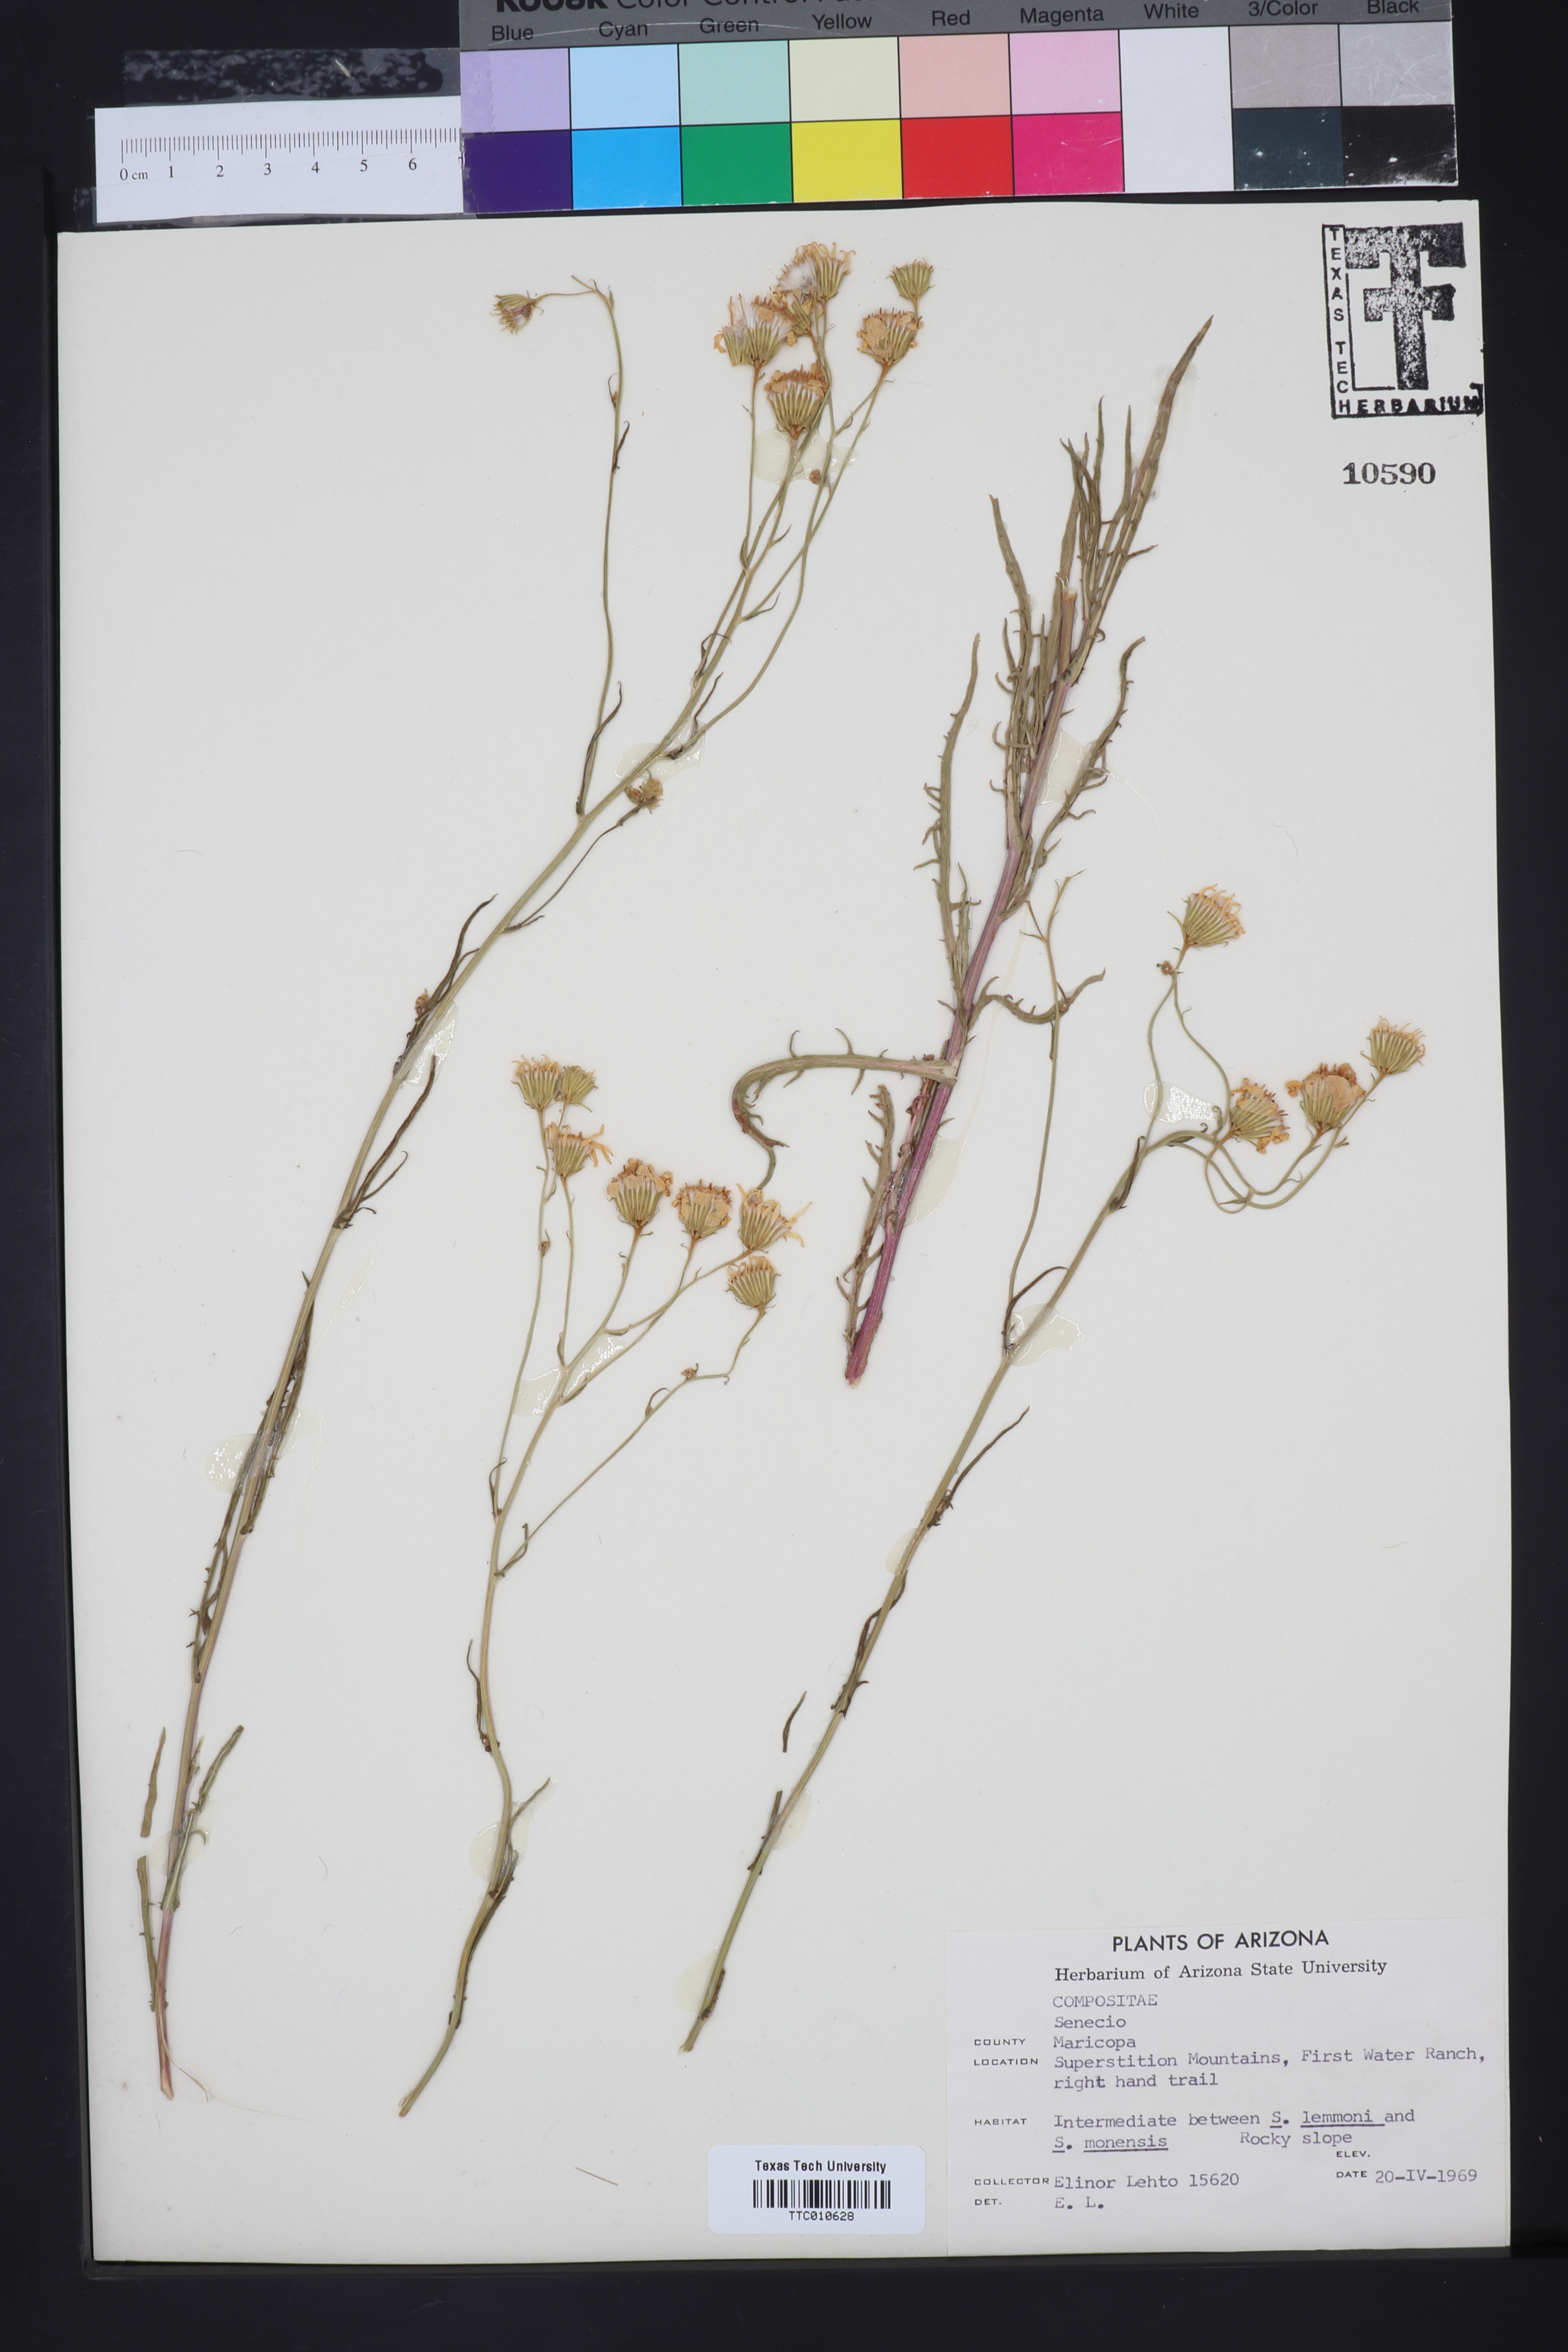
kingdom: Plantae
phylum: Tracheophyta
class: Magnoliopsida
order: Asterales
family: Asteraceae
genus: Senecio
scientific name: Senecio
